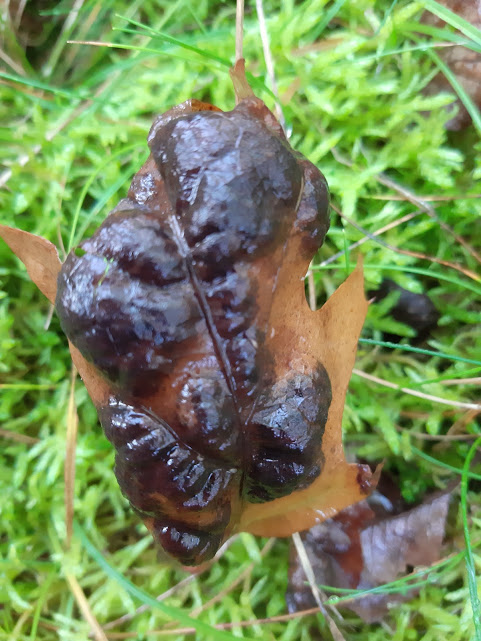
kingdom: Fungi
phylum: Ascomycota
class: Taphrinomycetes
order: Taphrinales
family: Taphrinaceae
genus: Taphrina
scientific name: Taphrina caerulescens
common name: Oak leaf blister
